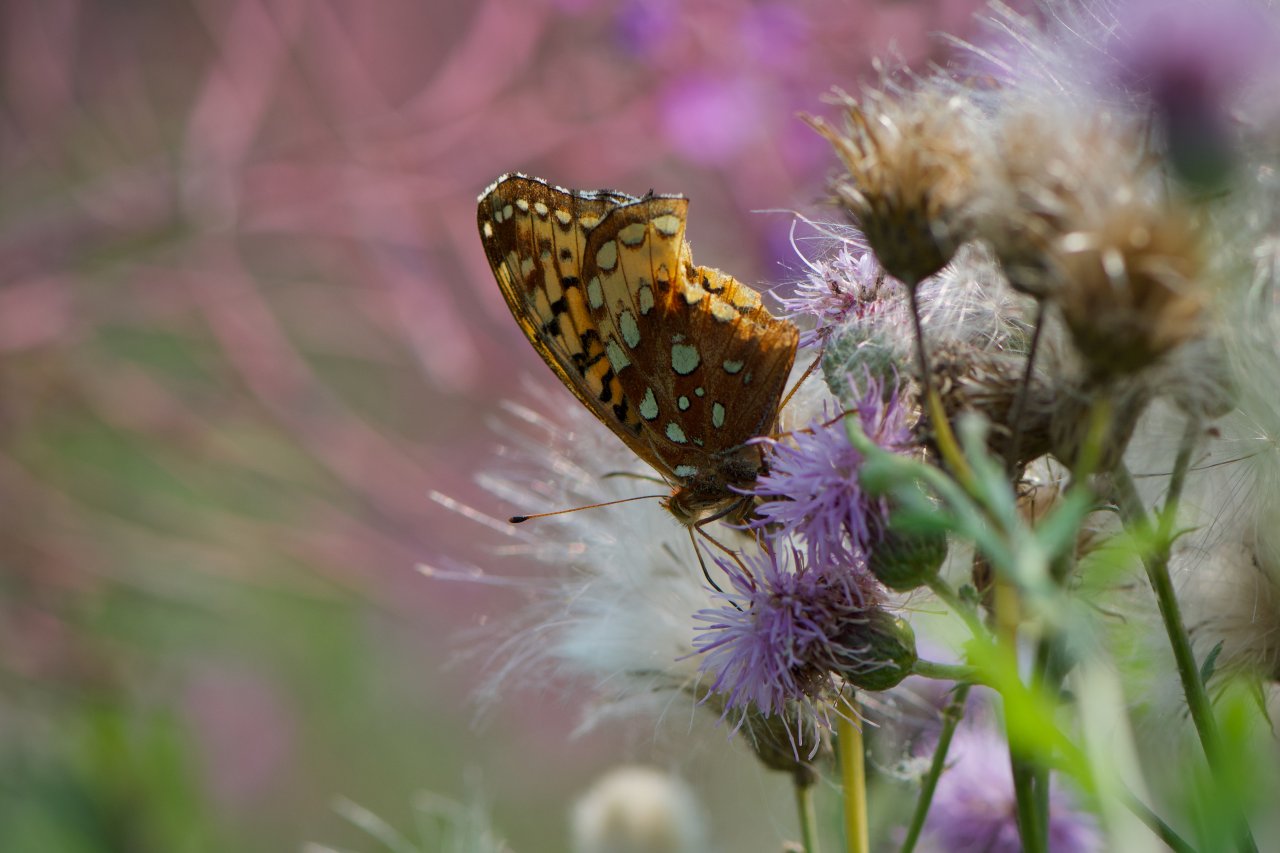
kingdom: Animalia
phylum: Arthropoda
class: Insecta
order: Lepidoptera
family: Nymphalidae
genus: Speyeria
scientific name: Speyeria cybele
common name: Great Spangled Fritillary
